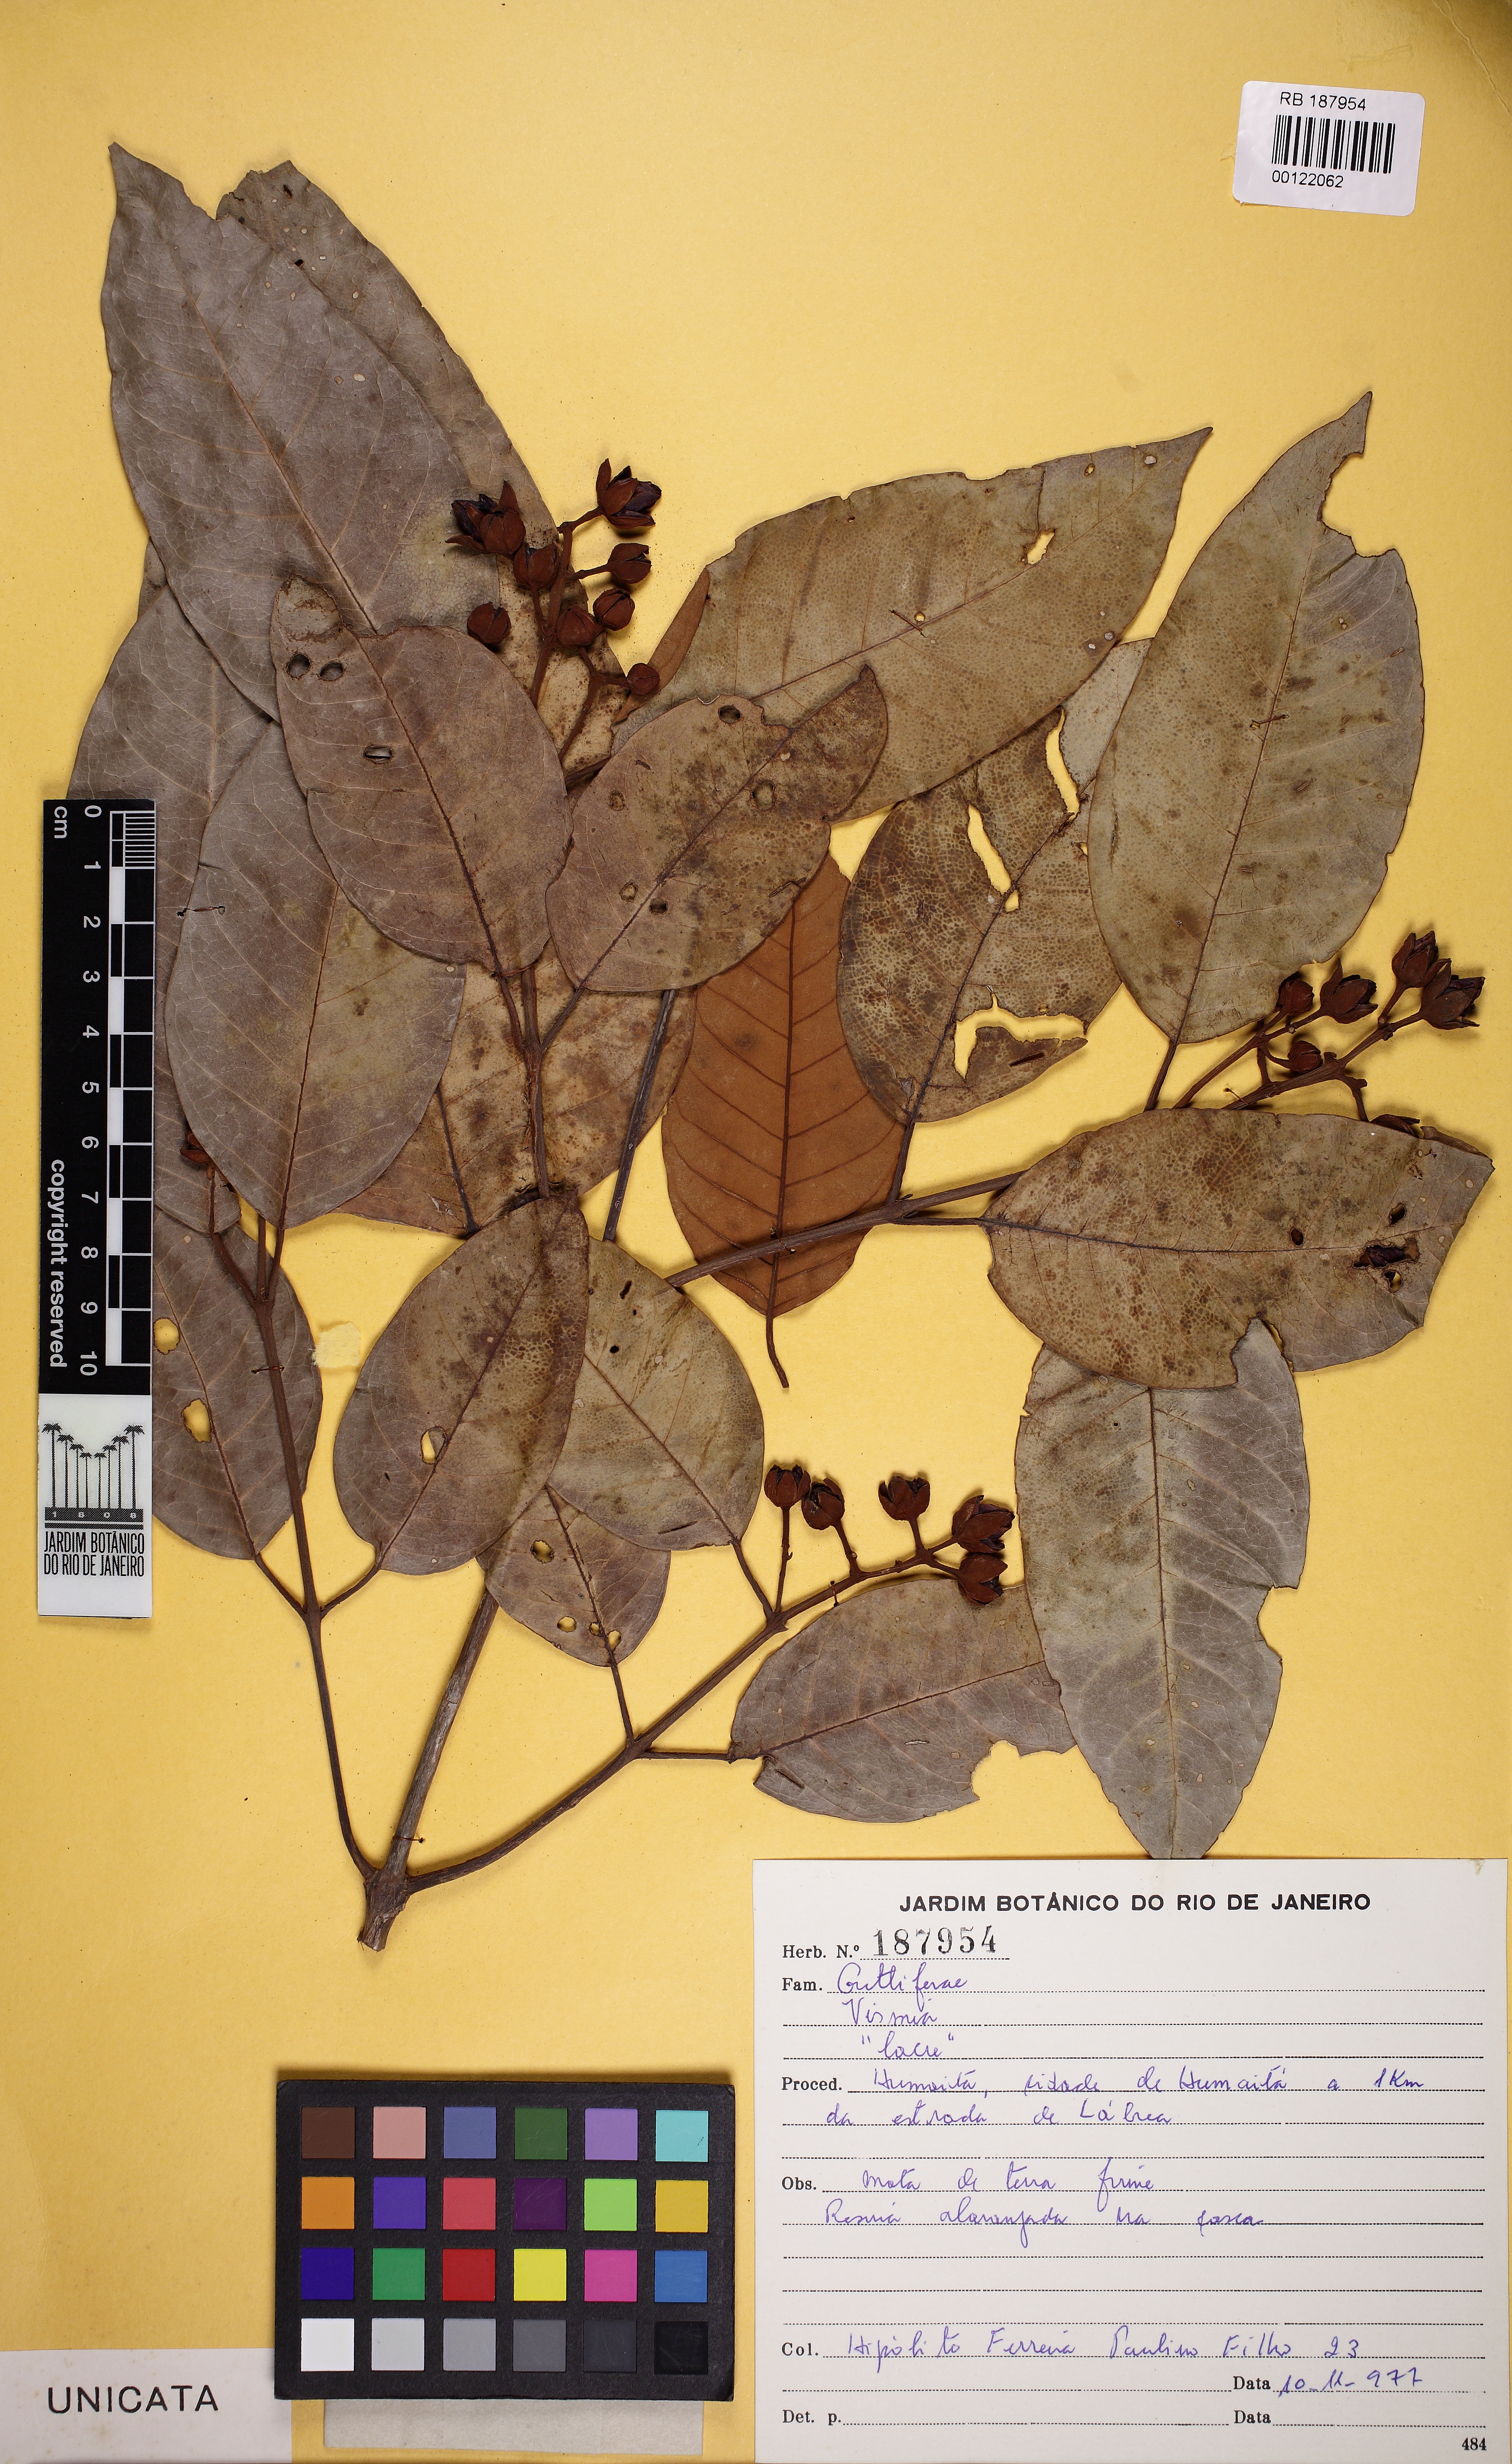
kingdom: Plantae
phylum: Tracheophyta
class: Magnoliopsida
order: Malpighiales
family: Hypericaceae
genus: Vismia
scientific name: Vismia japurensis
